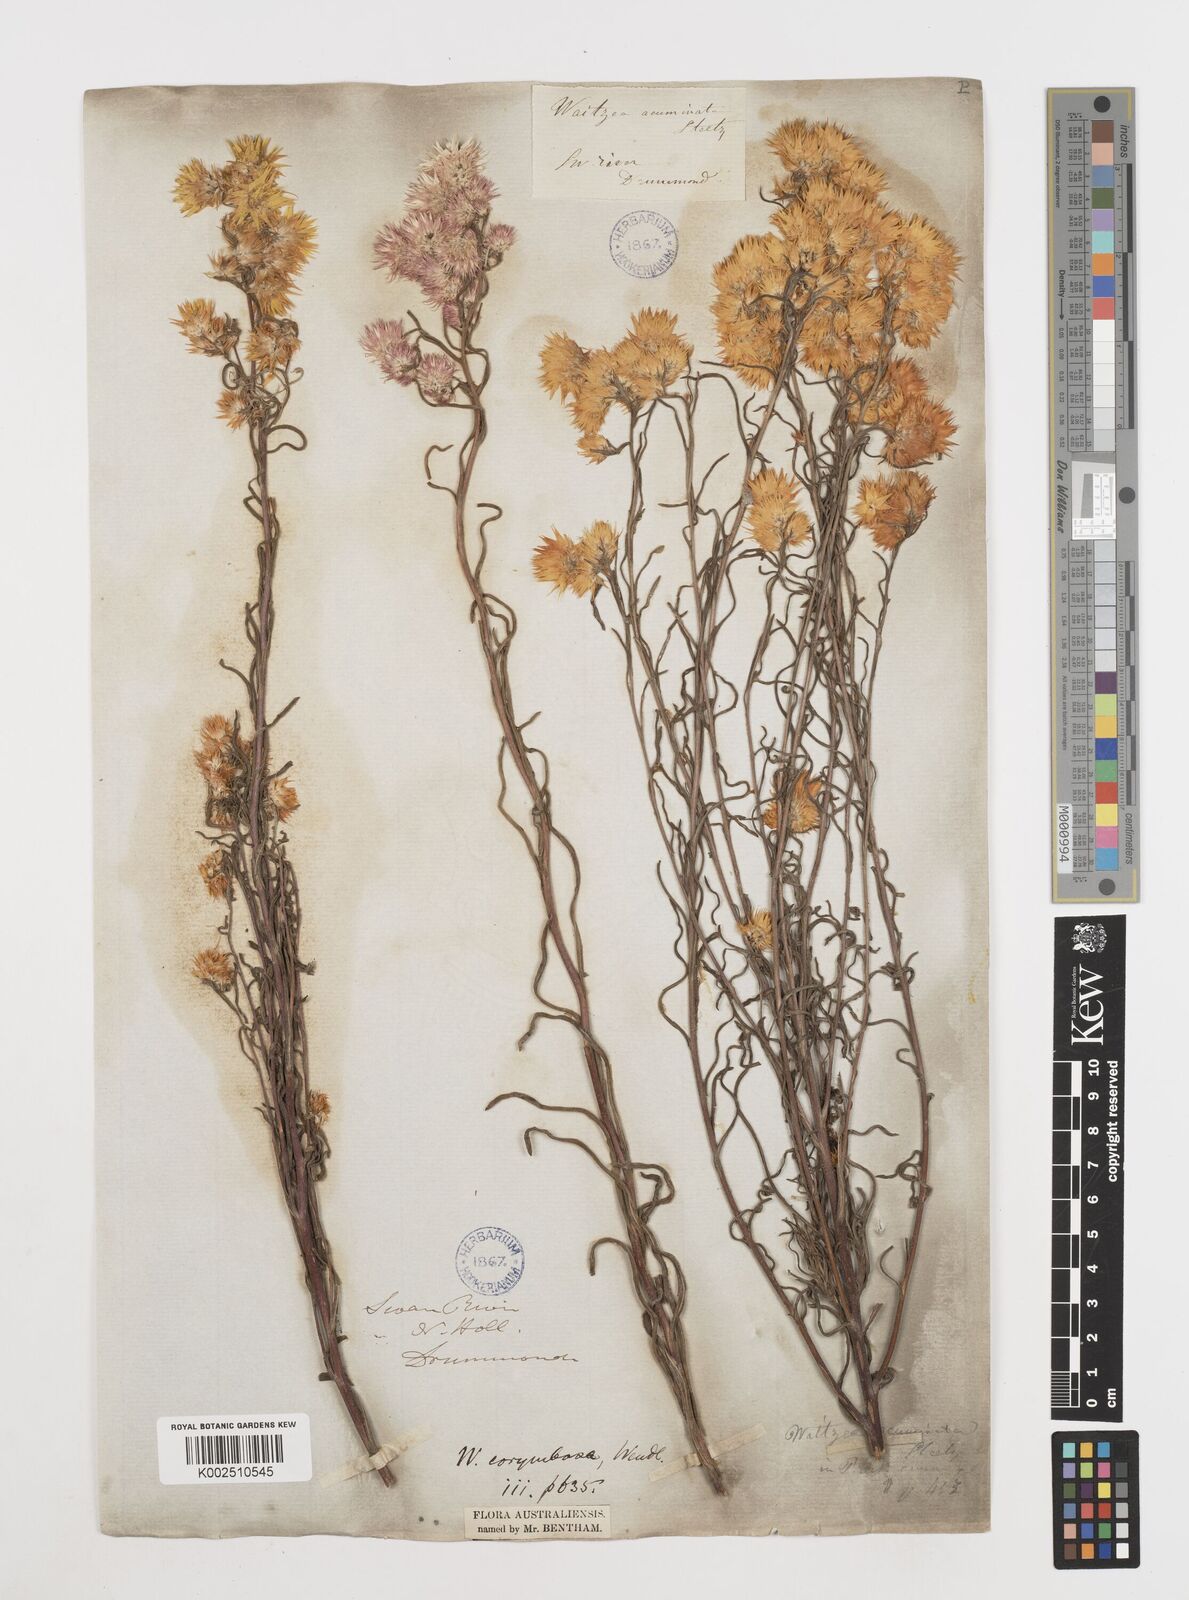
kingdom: Plantae
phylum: Tracheophyta
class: Magnoliopsida
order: Asterales
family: Asteraceae
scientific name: Asteraceae
